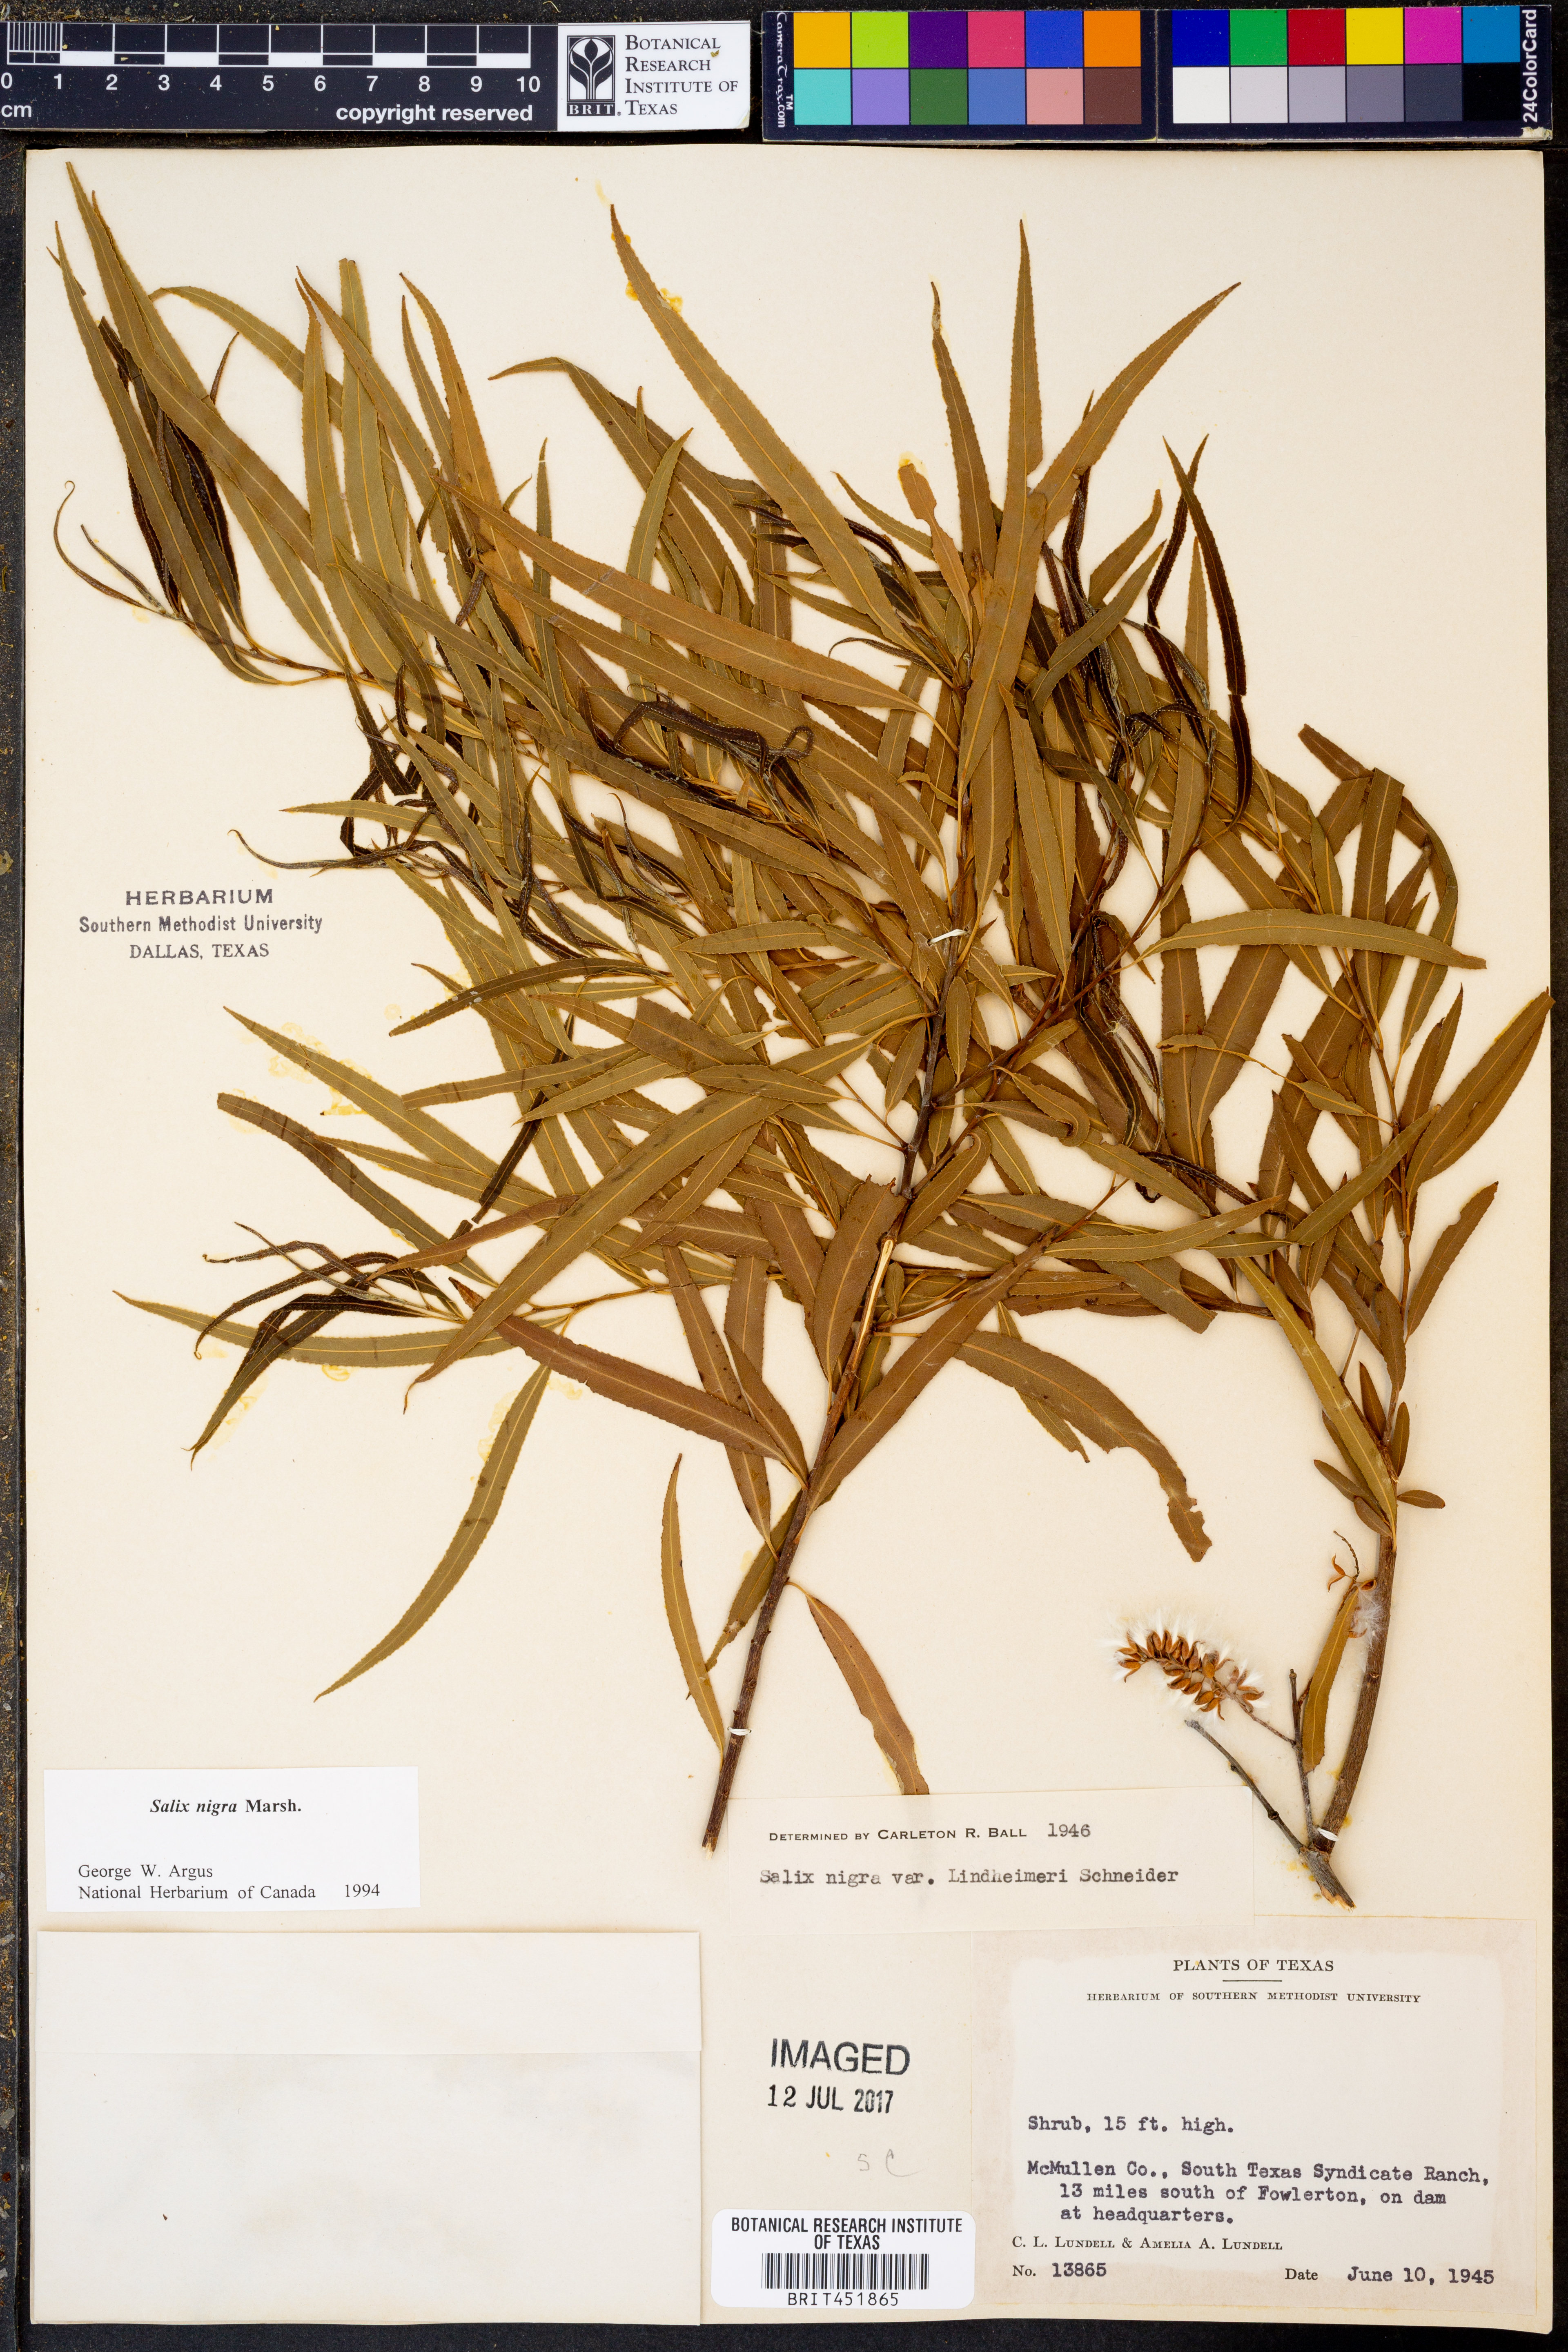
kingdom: Plantae
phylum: Tracheophyta
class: Magnoliopsida
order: Malpighiales
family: Salicaceae
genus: Salix
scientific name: Salix nigra
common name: Black willow
